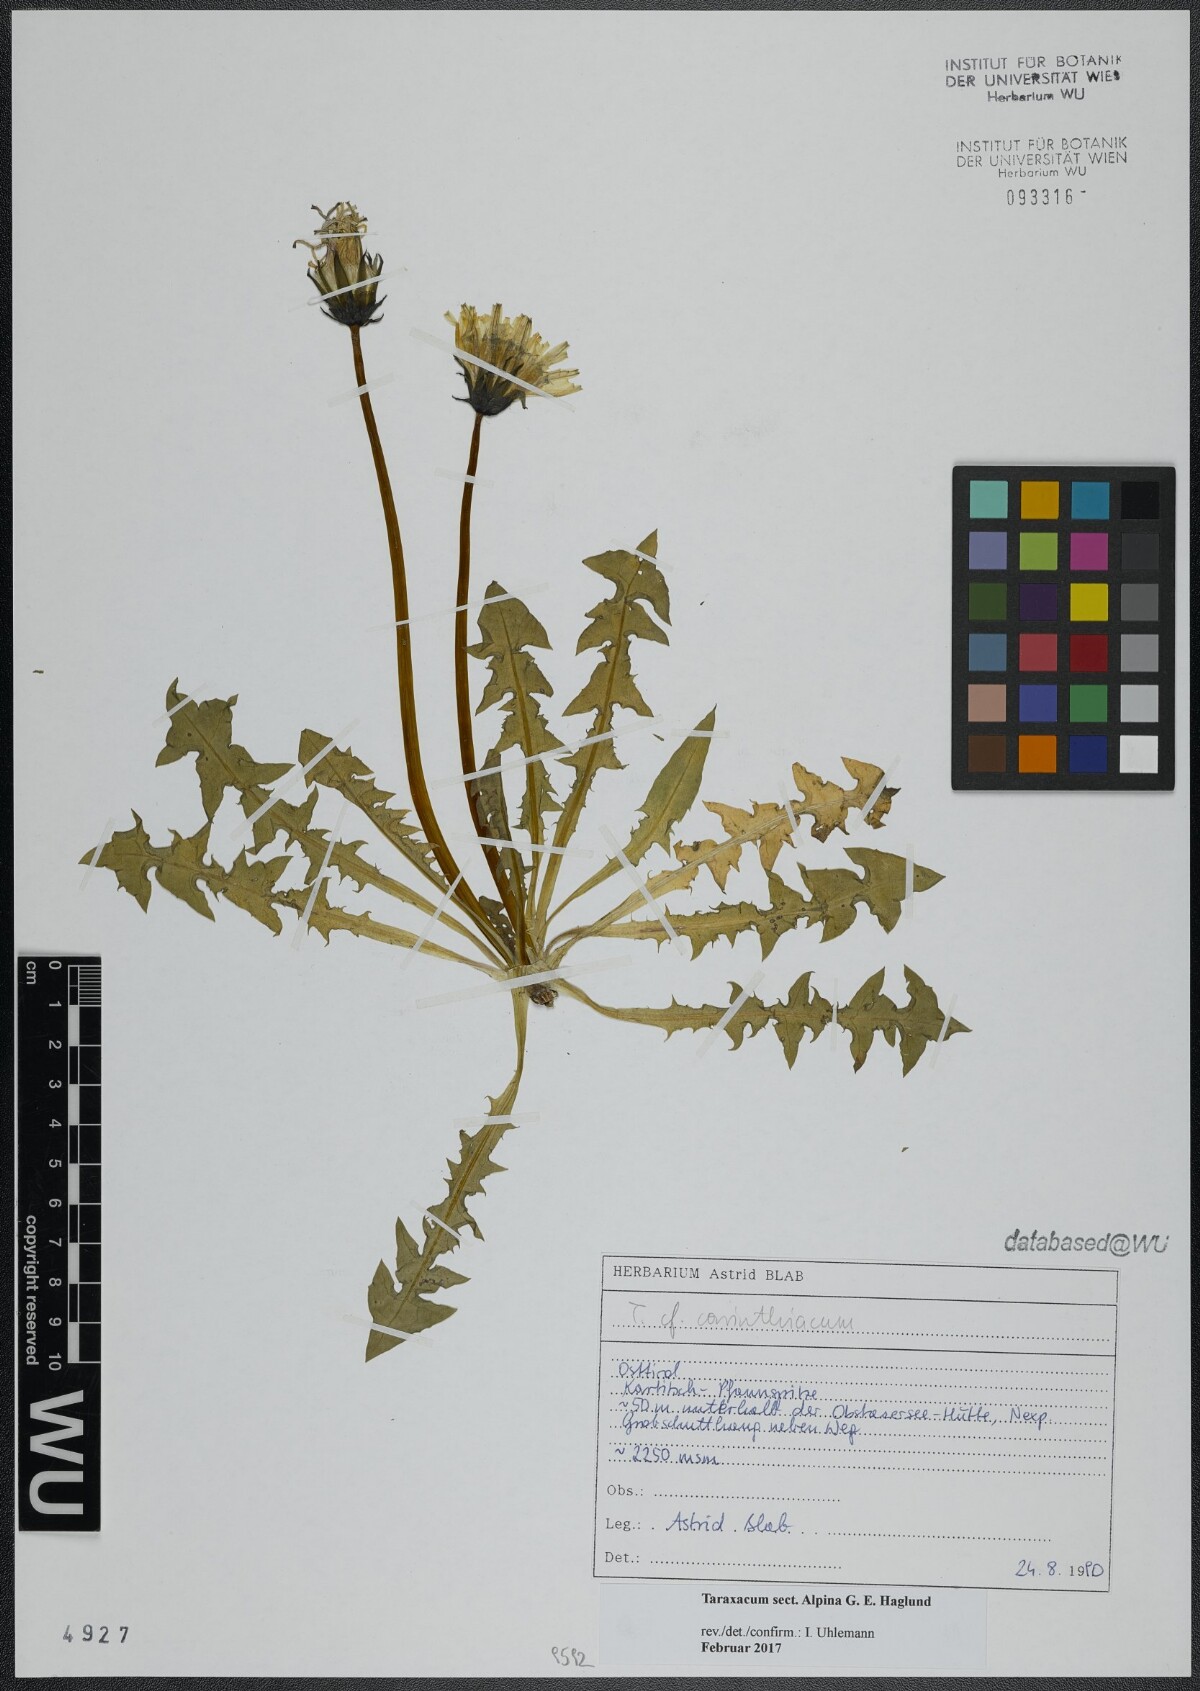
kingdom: Plantae
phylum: Tracheophyta
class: Magnoliopsida
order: Asterales
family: Asteraceae
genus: Taraxacum
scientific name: Taraxacum
